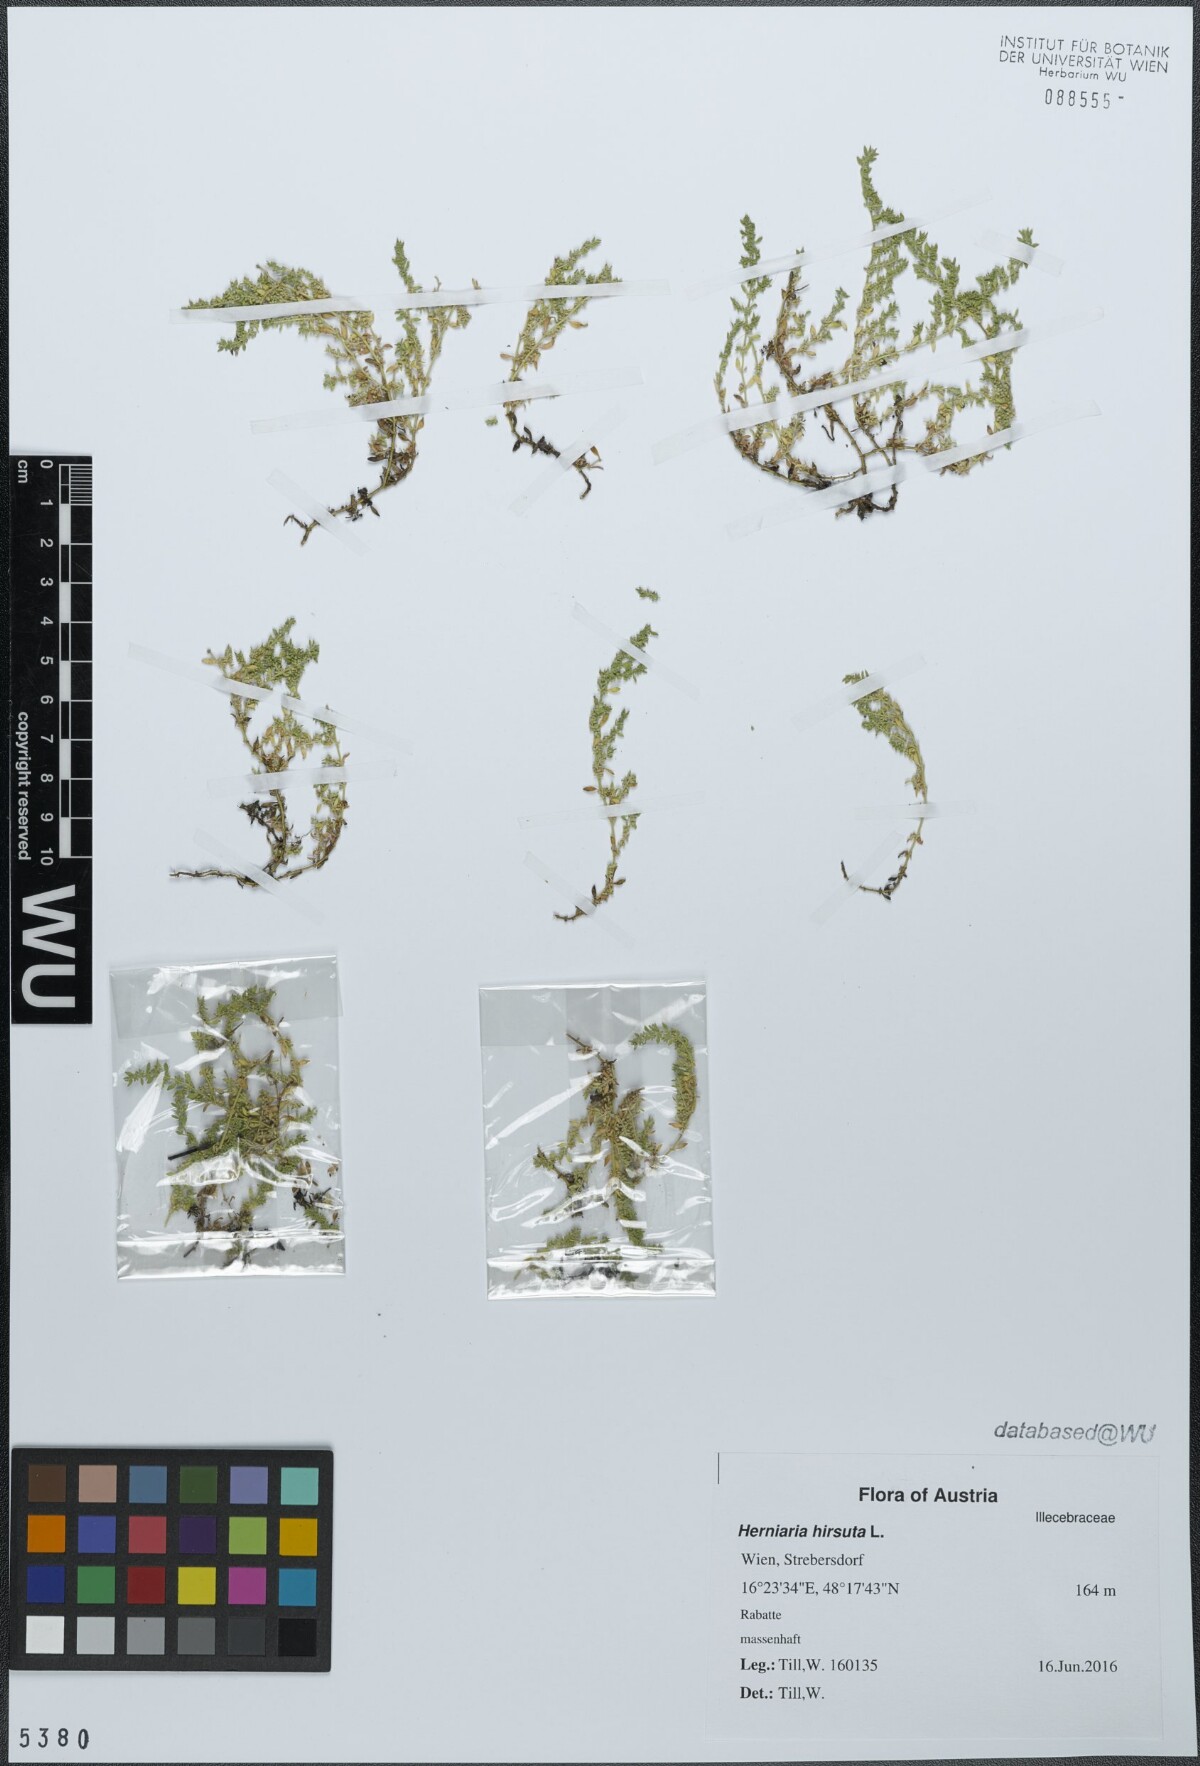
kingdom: Plantae
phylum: Tracheophyta
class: Magnoliopsida
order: Caryophyllales
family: Caryophyllaceae
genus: Herniaria
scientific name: Herniaria hirsuta
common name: Hairy rupturewort
